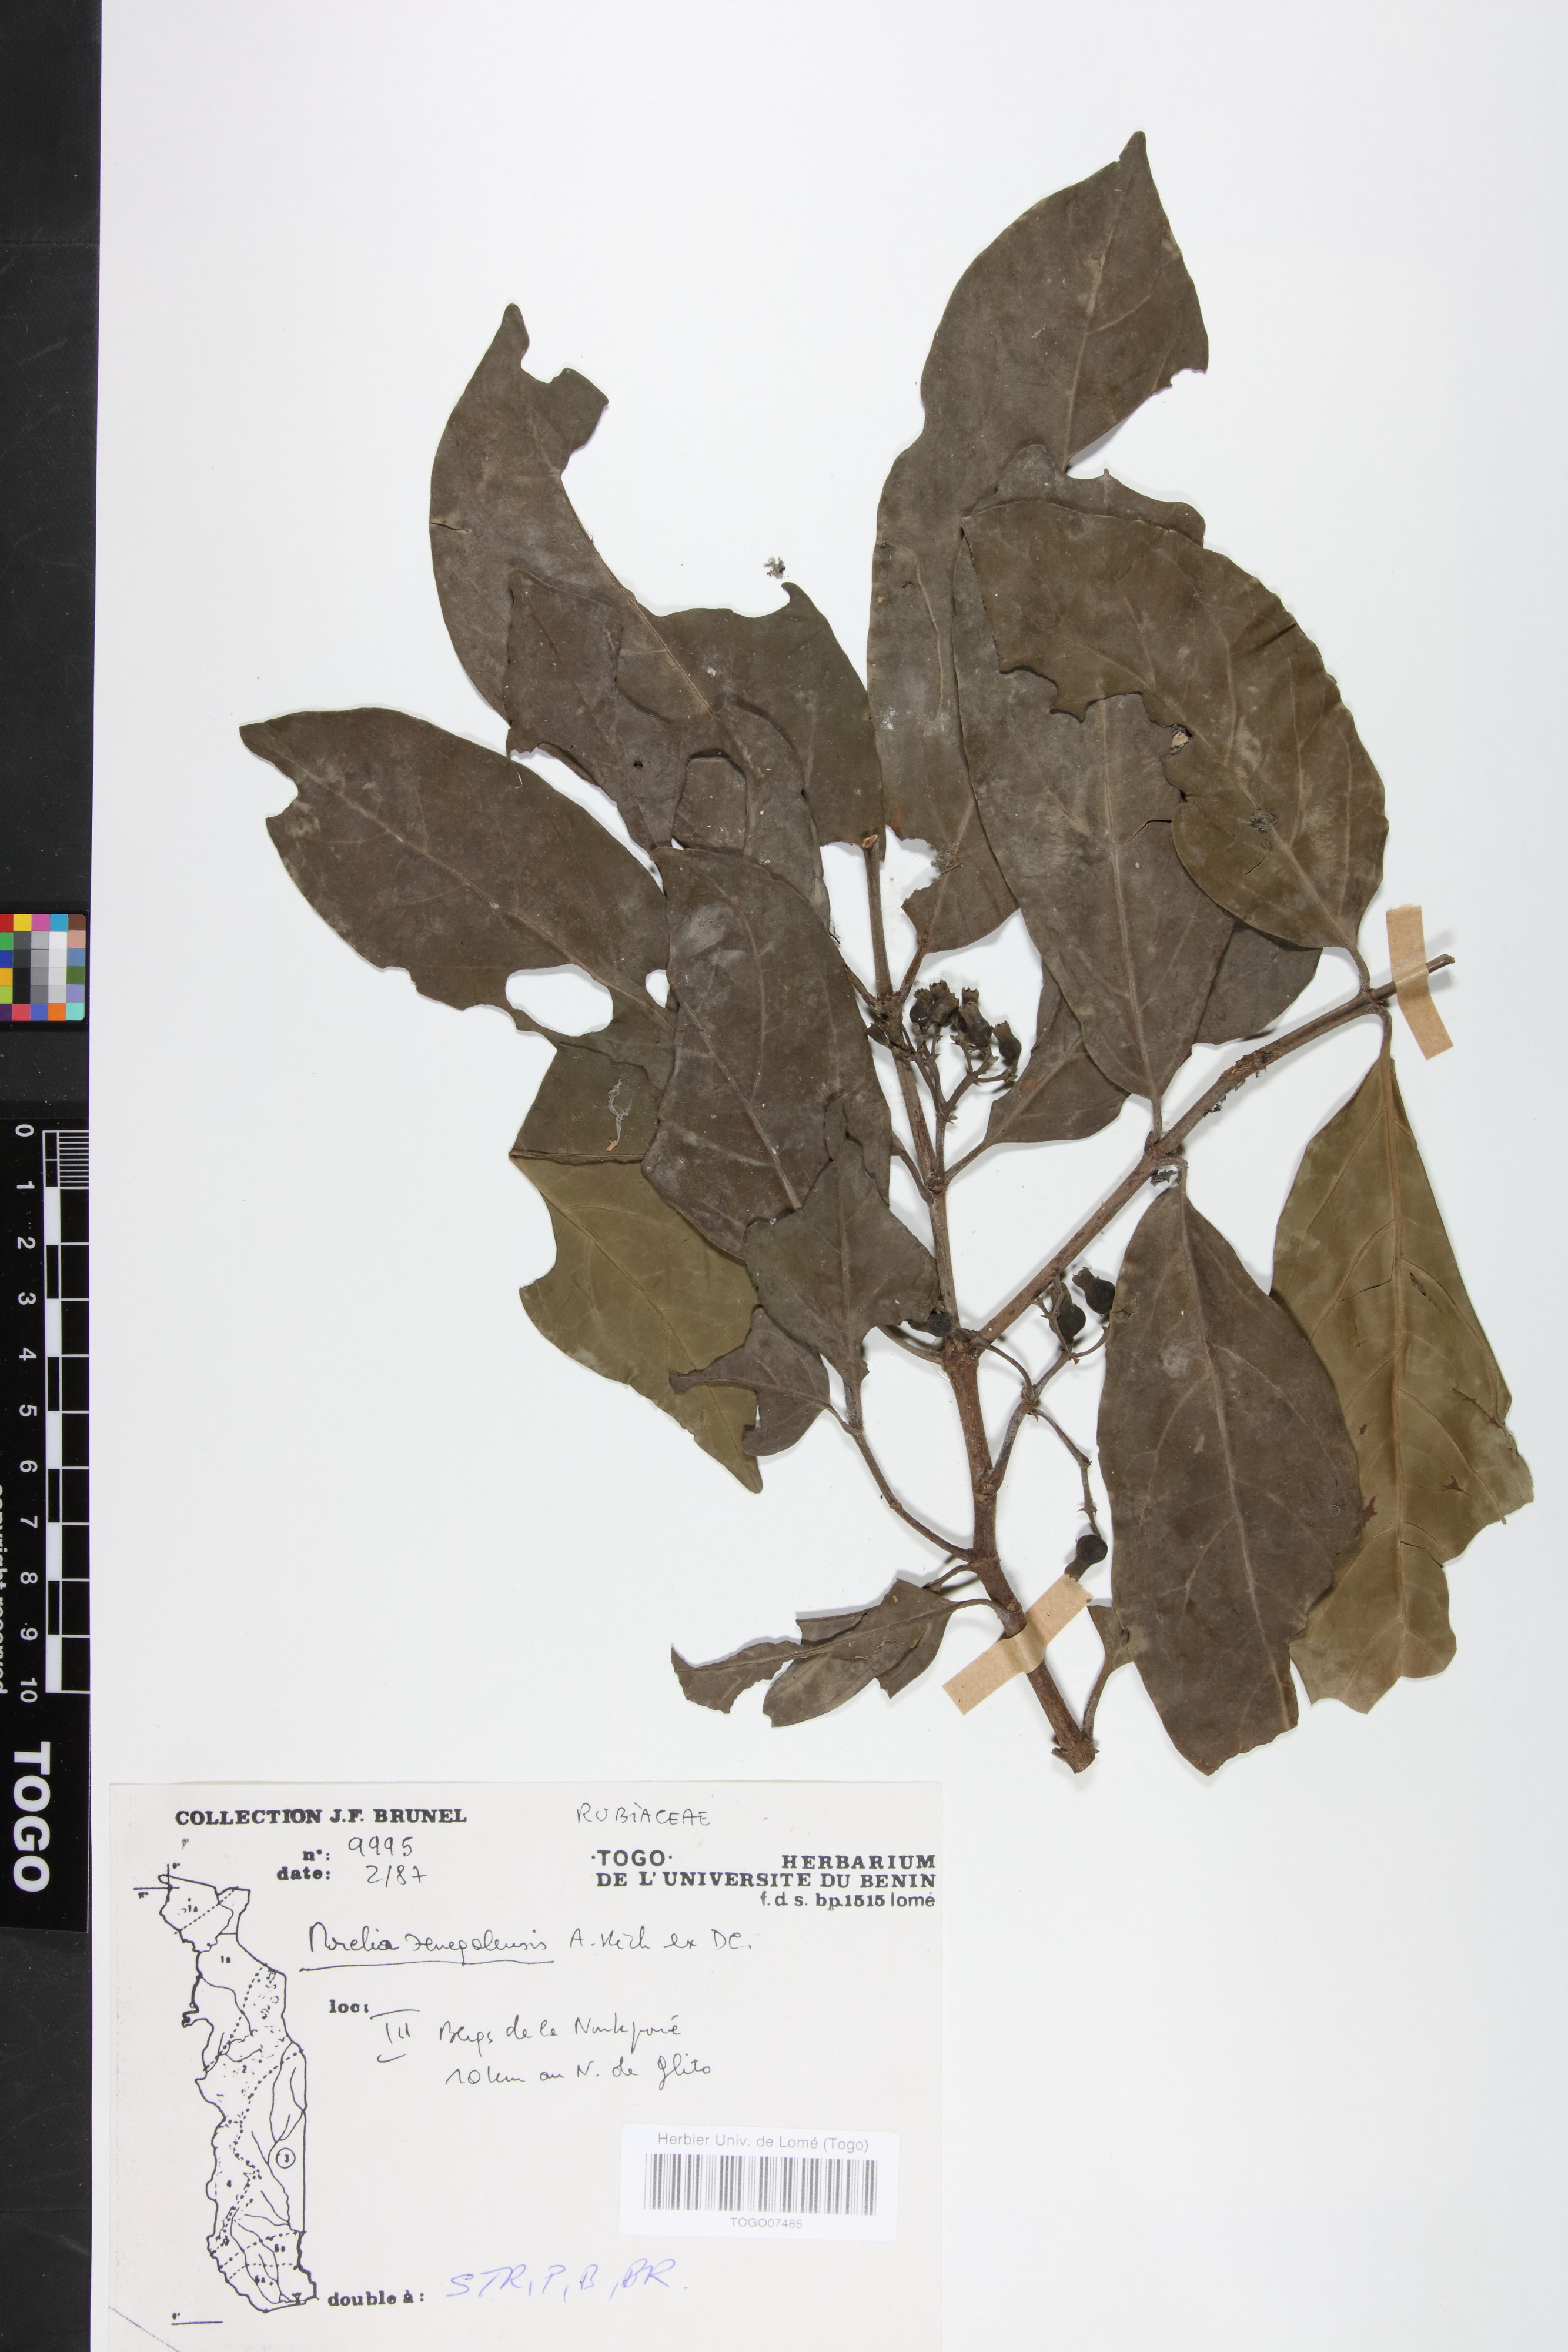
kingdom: Plantae
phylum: Tracheophyta
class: Magnoliopsida
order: Gentianales
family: Rubiaceae
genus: Morelia
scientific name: Morelia senegalensis
